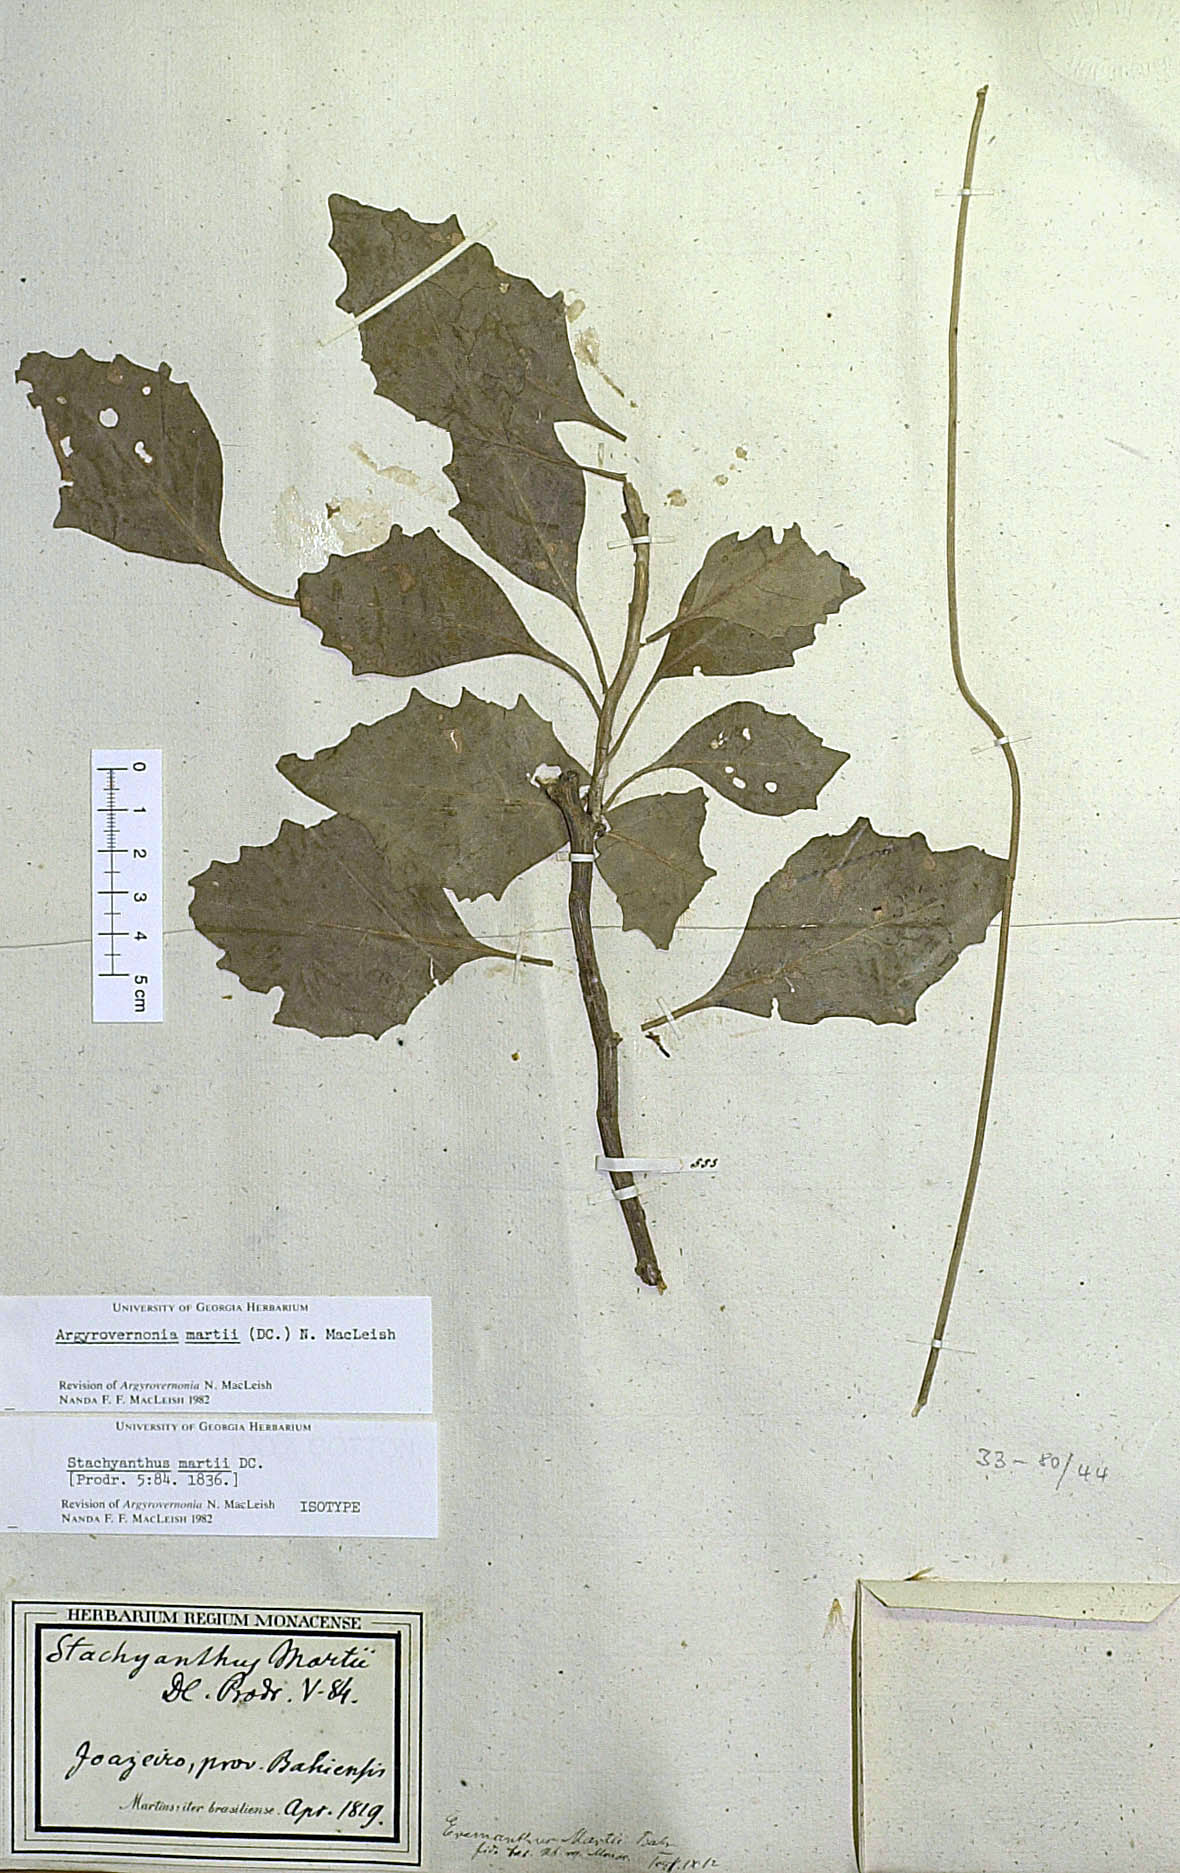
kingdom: Plantae
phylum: Tracheophyta
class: Magnoliopsida
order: Asterales
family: Asteraceae
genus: Chresta
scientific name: Chresta martii
